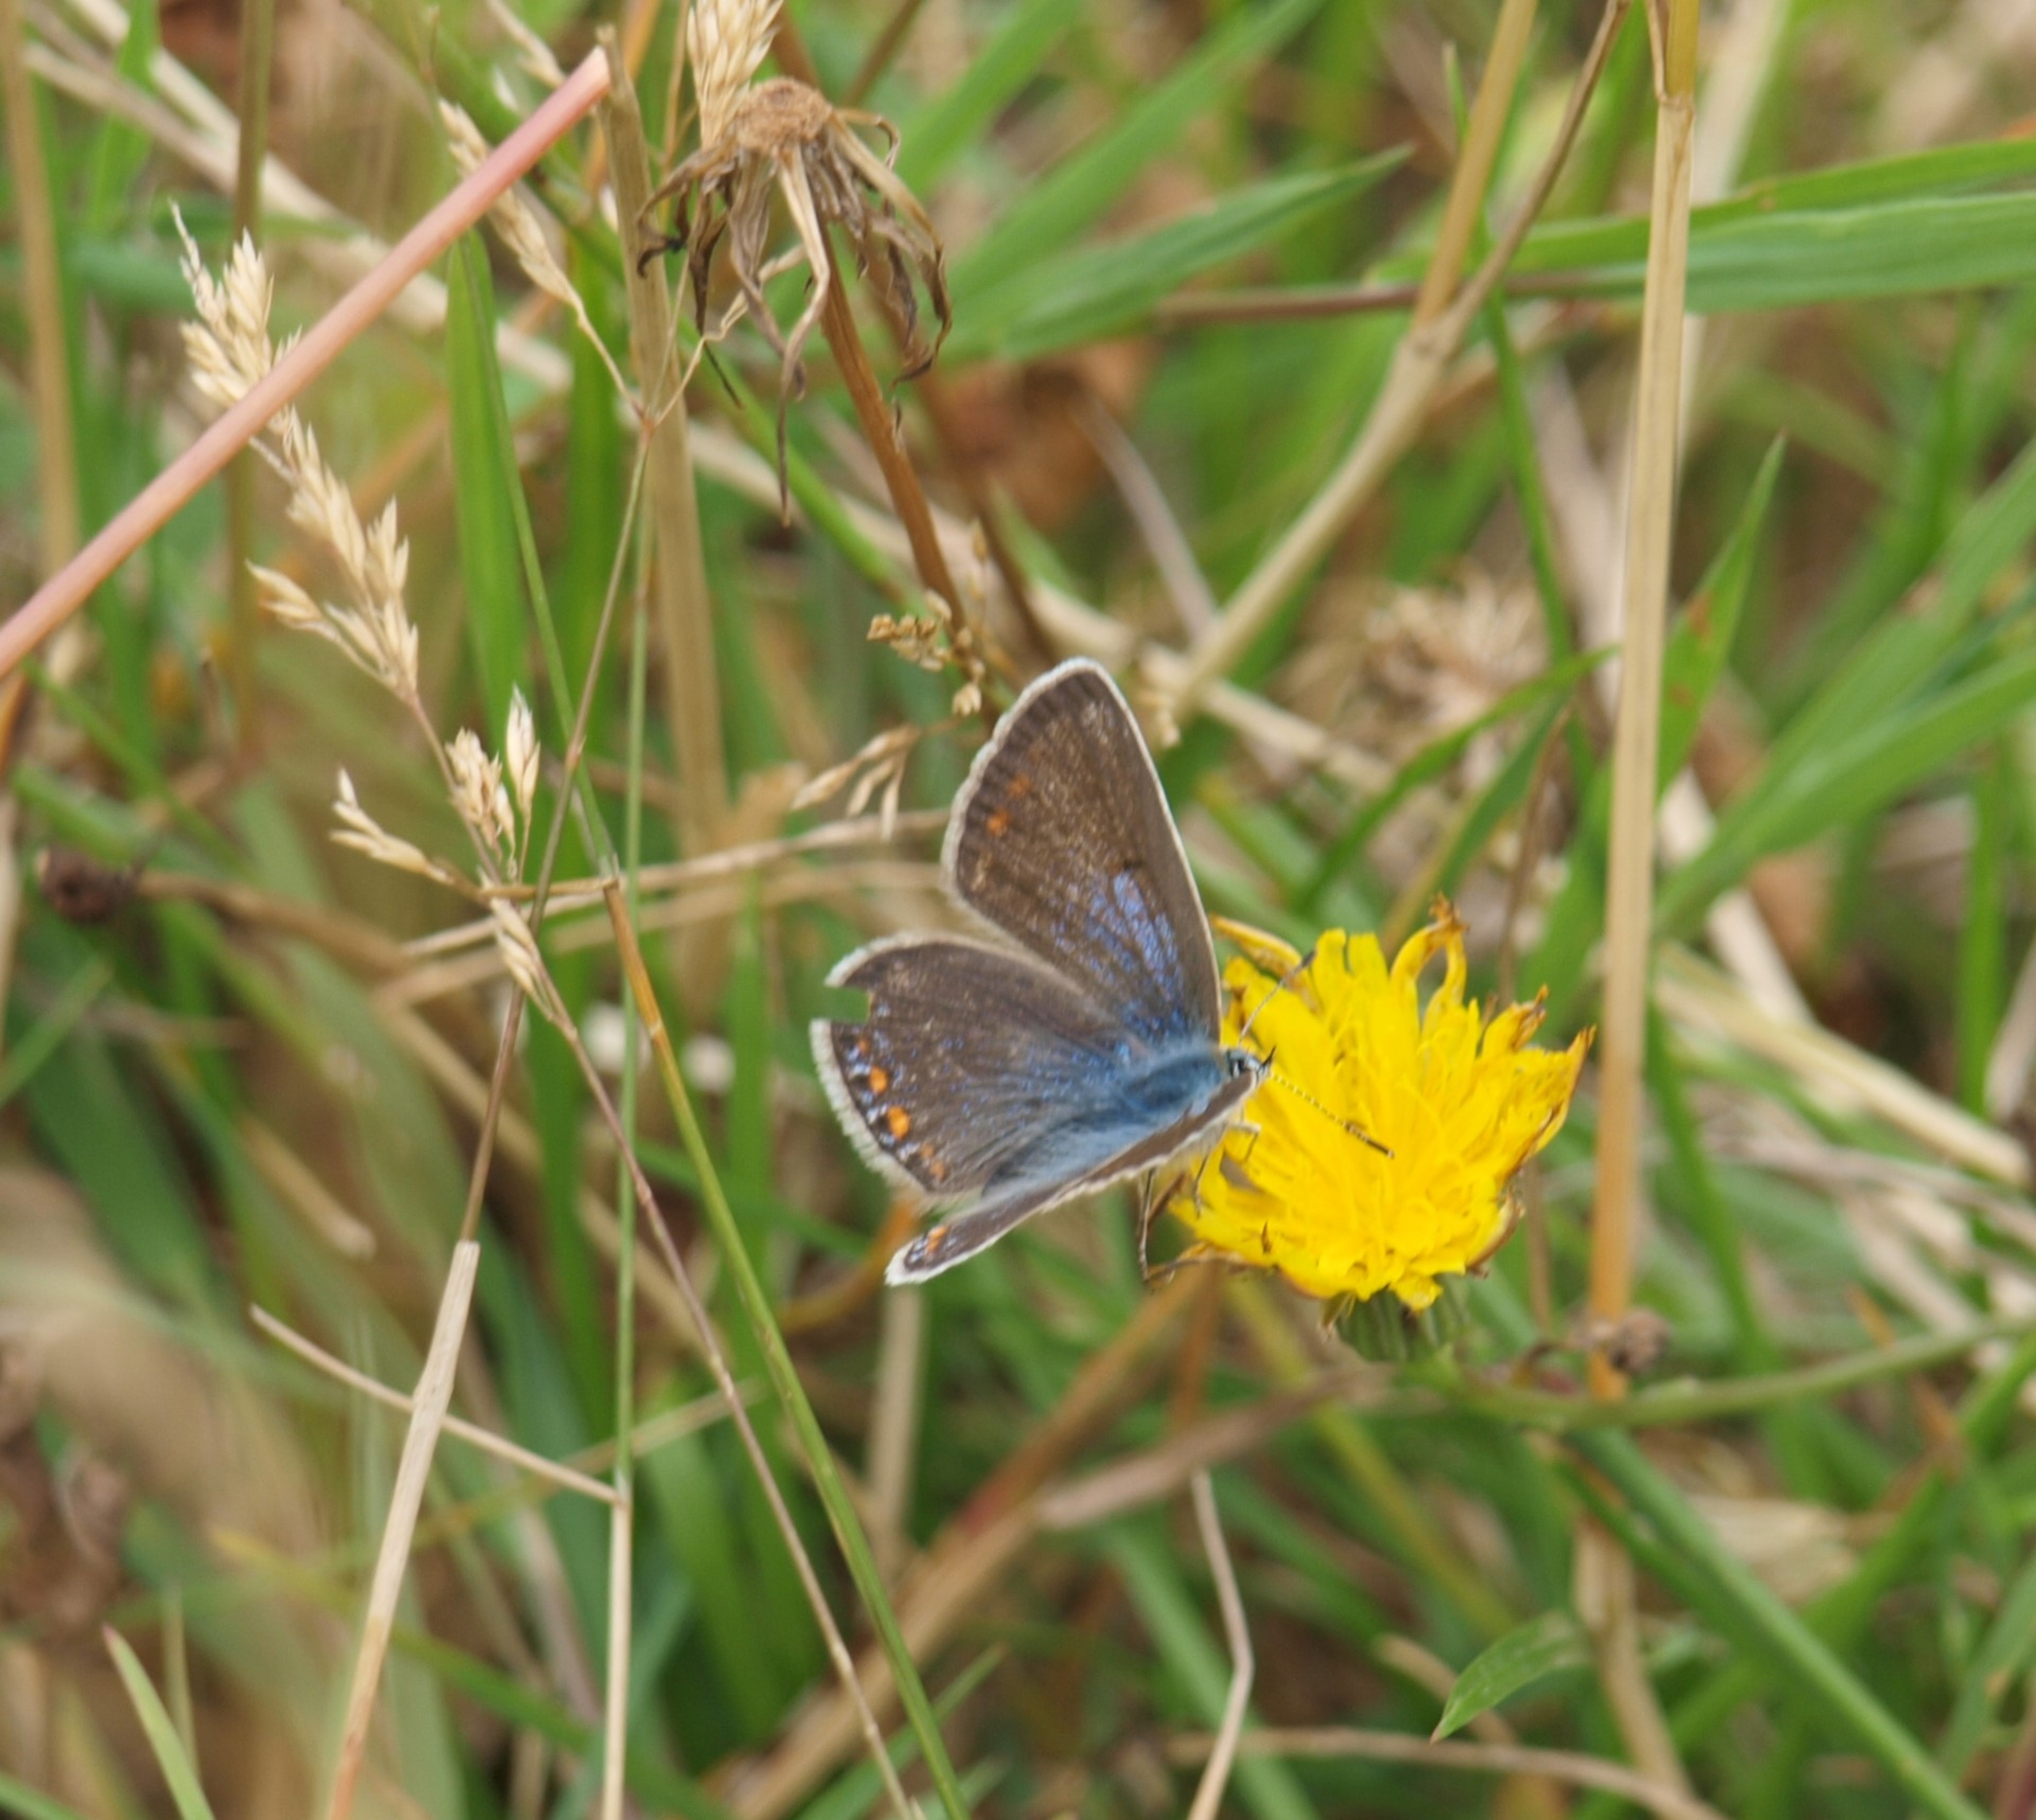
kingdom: Animalia
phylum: Arthropoda
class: Insecta
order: Lepidoptera
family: Lycaenidae
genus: Polyommatus
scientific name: Polyommatus icarus
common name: Almindelig blåfugl
